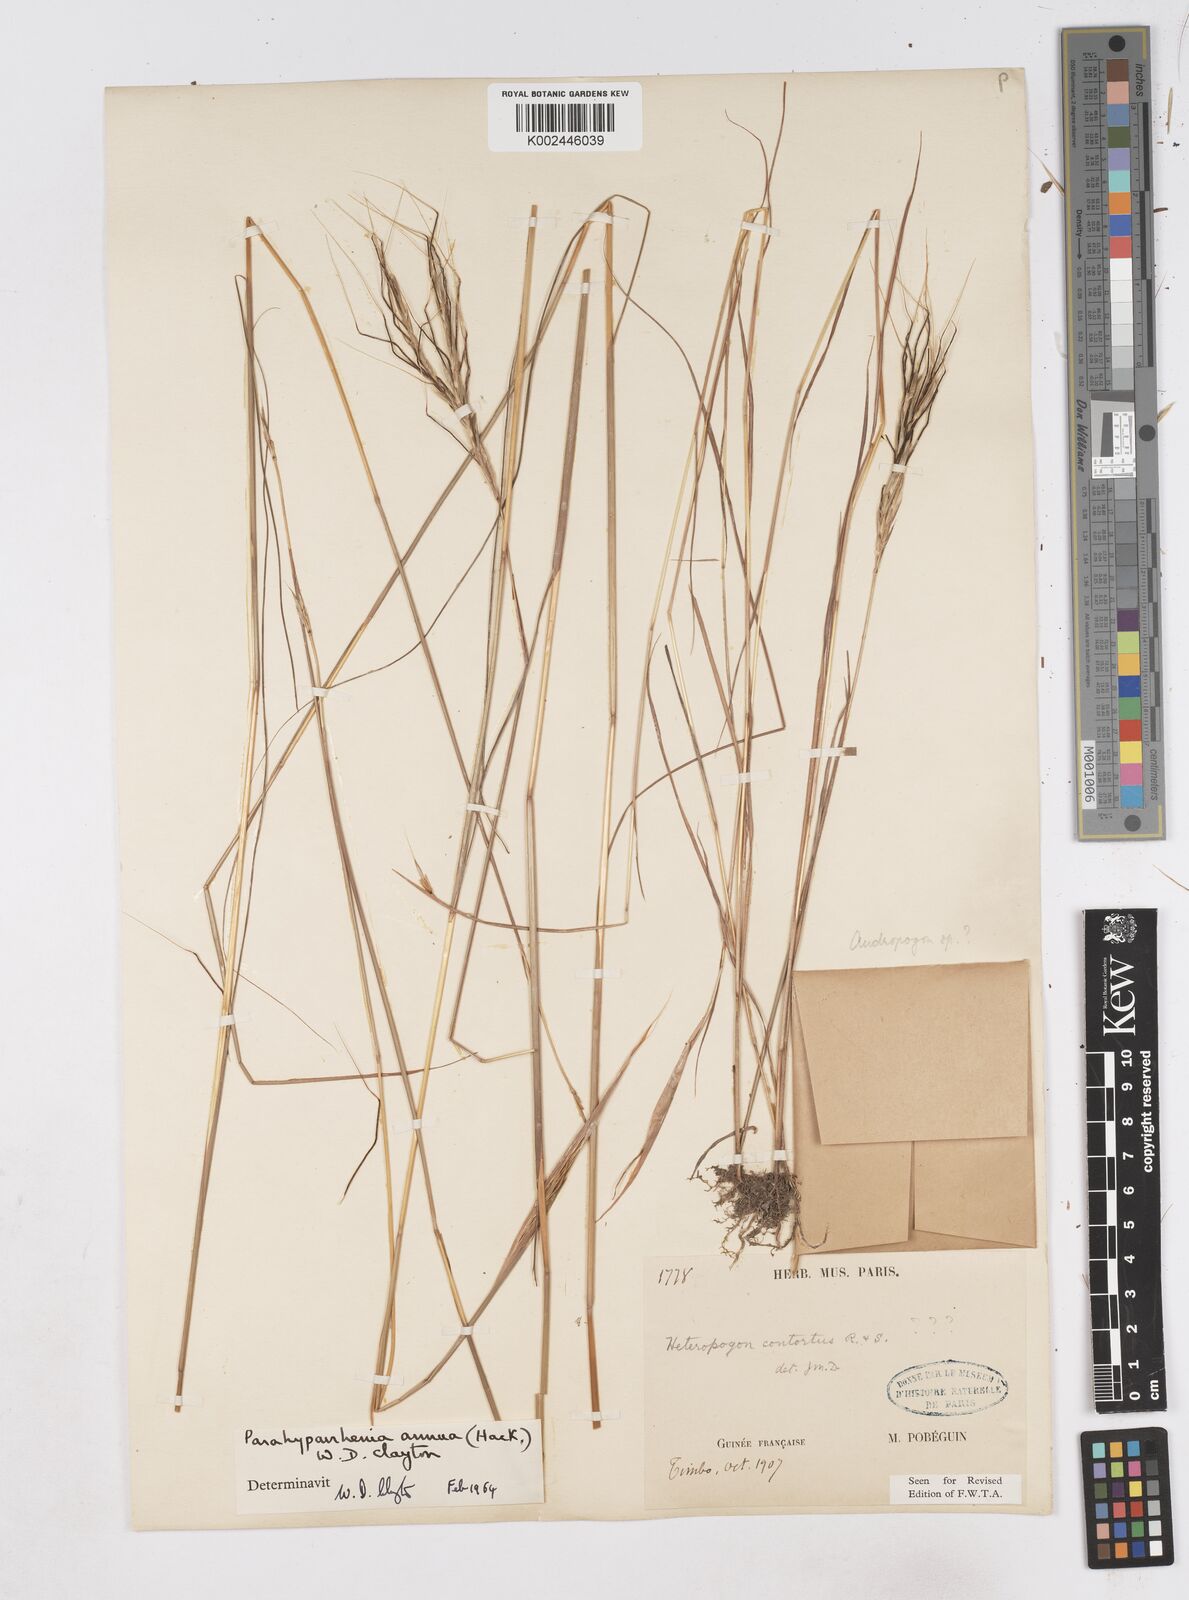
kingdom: Plantae
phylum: Tracheophyta
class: Liliopsida
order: Poales
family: Poaceae
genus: Parahyparrhenia
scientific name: Parahyparrhenia annua
